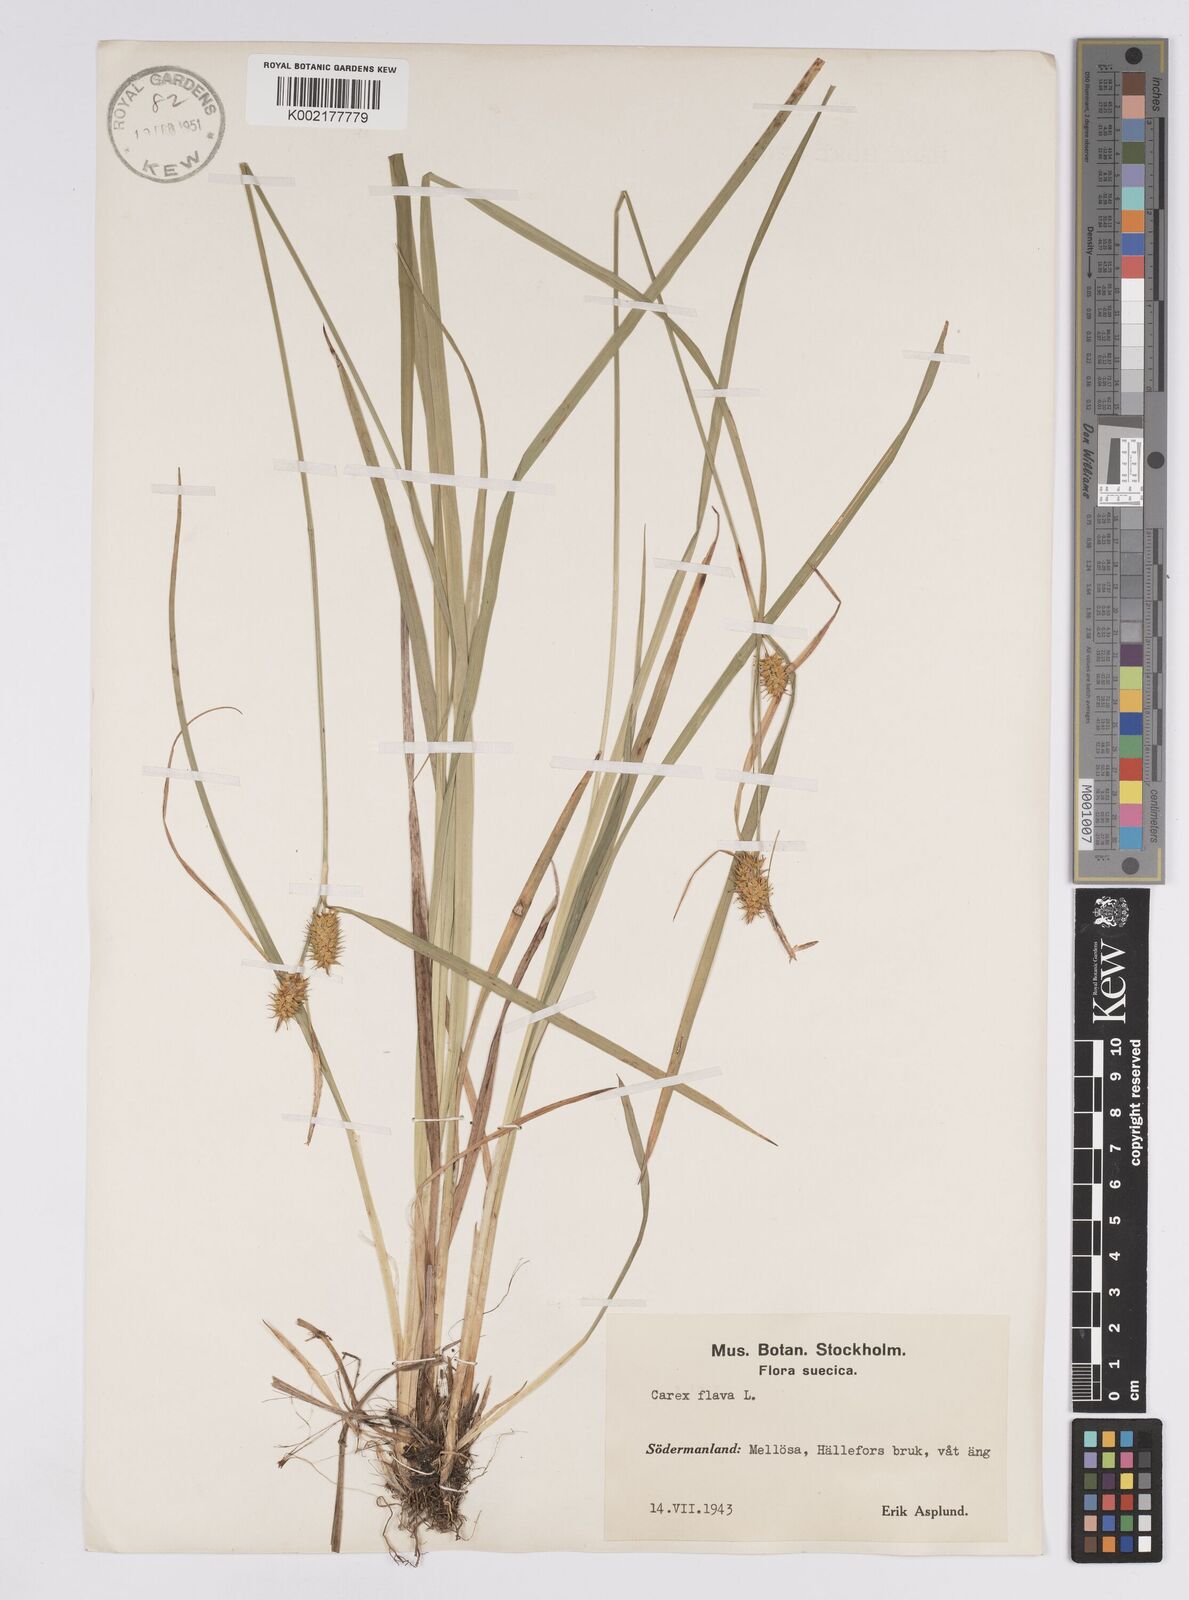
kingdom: Plantae
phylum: Tracheophyta
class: Liliopsida
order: Poales
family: Cyperaceae
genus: Carex
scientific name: Carex flava
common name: Large yellow-sedge
